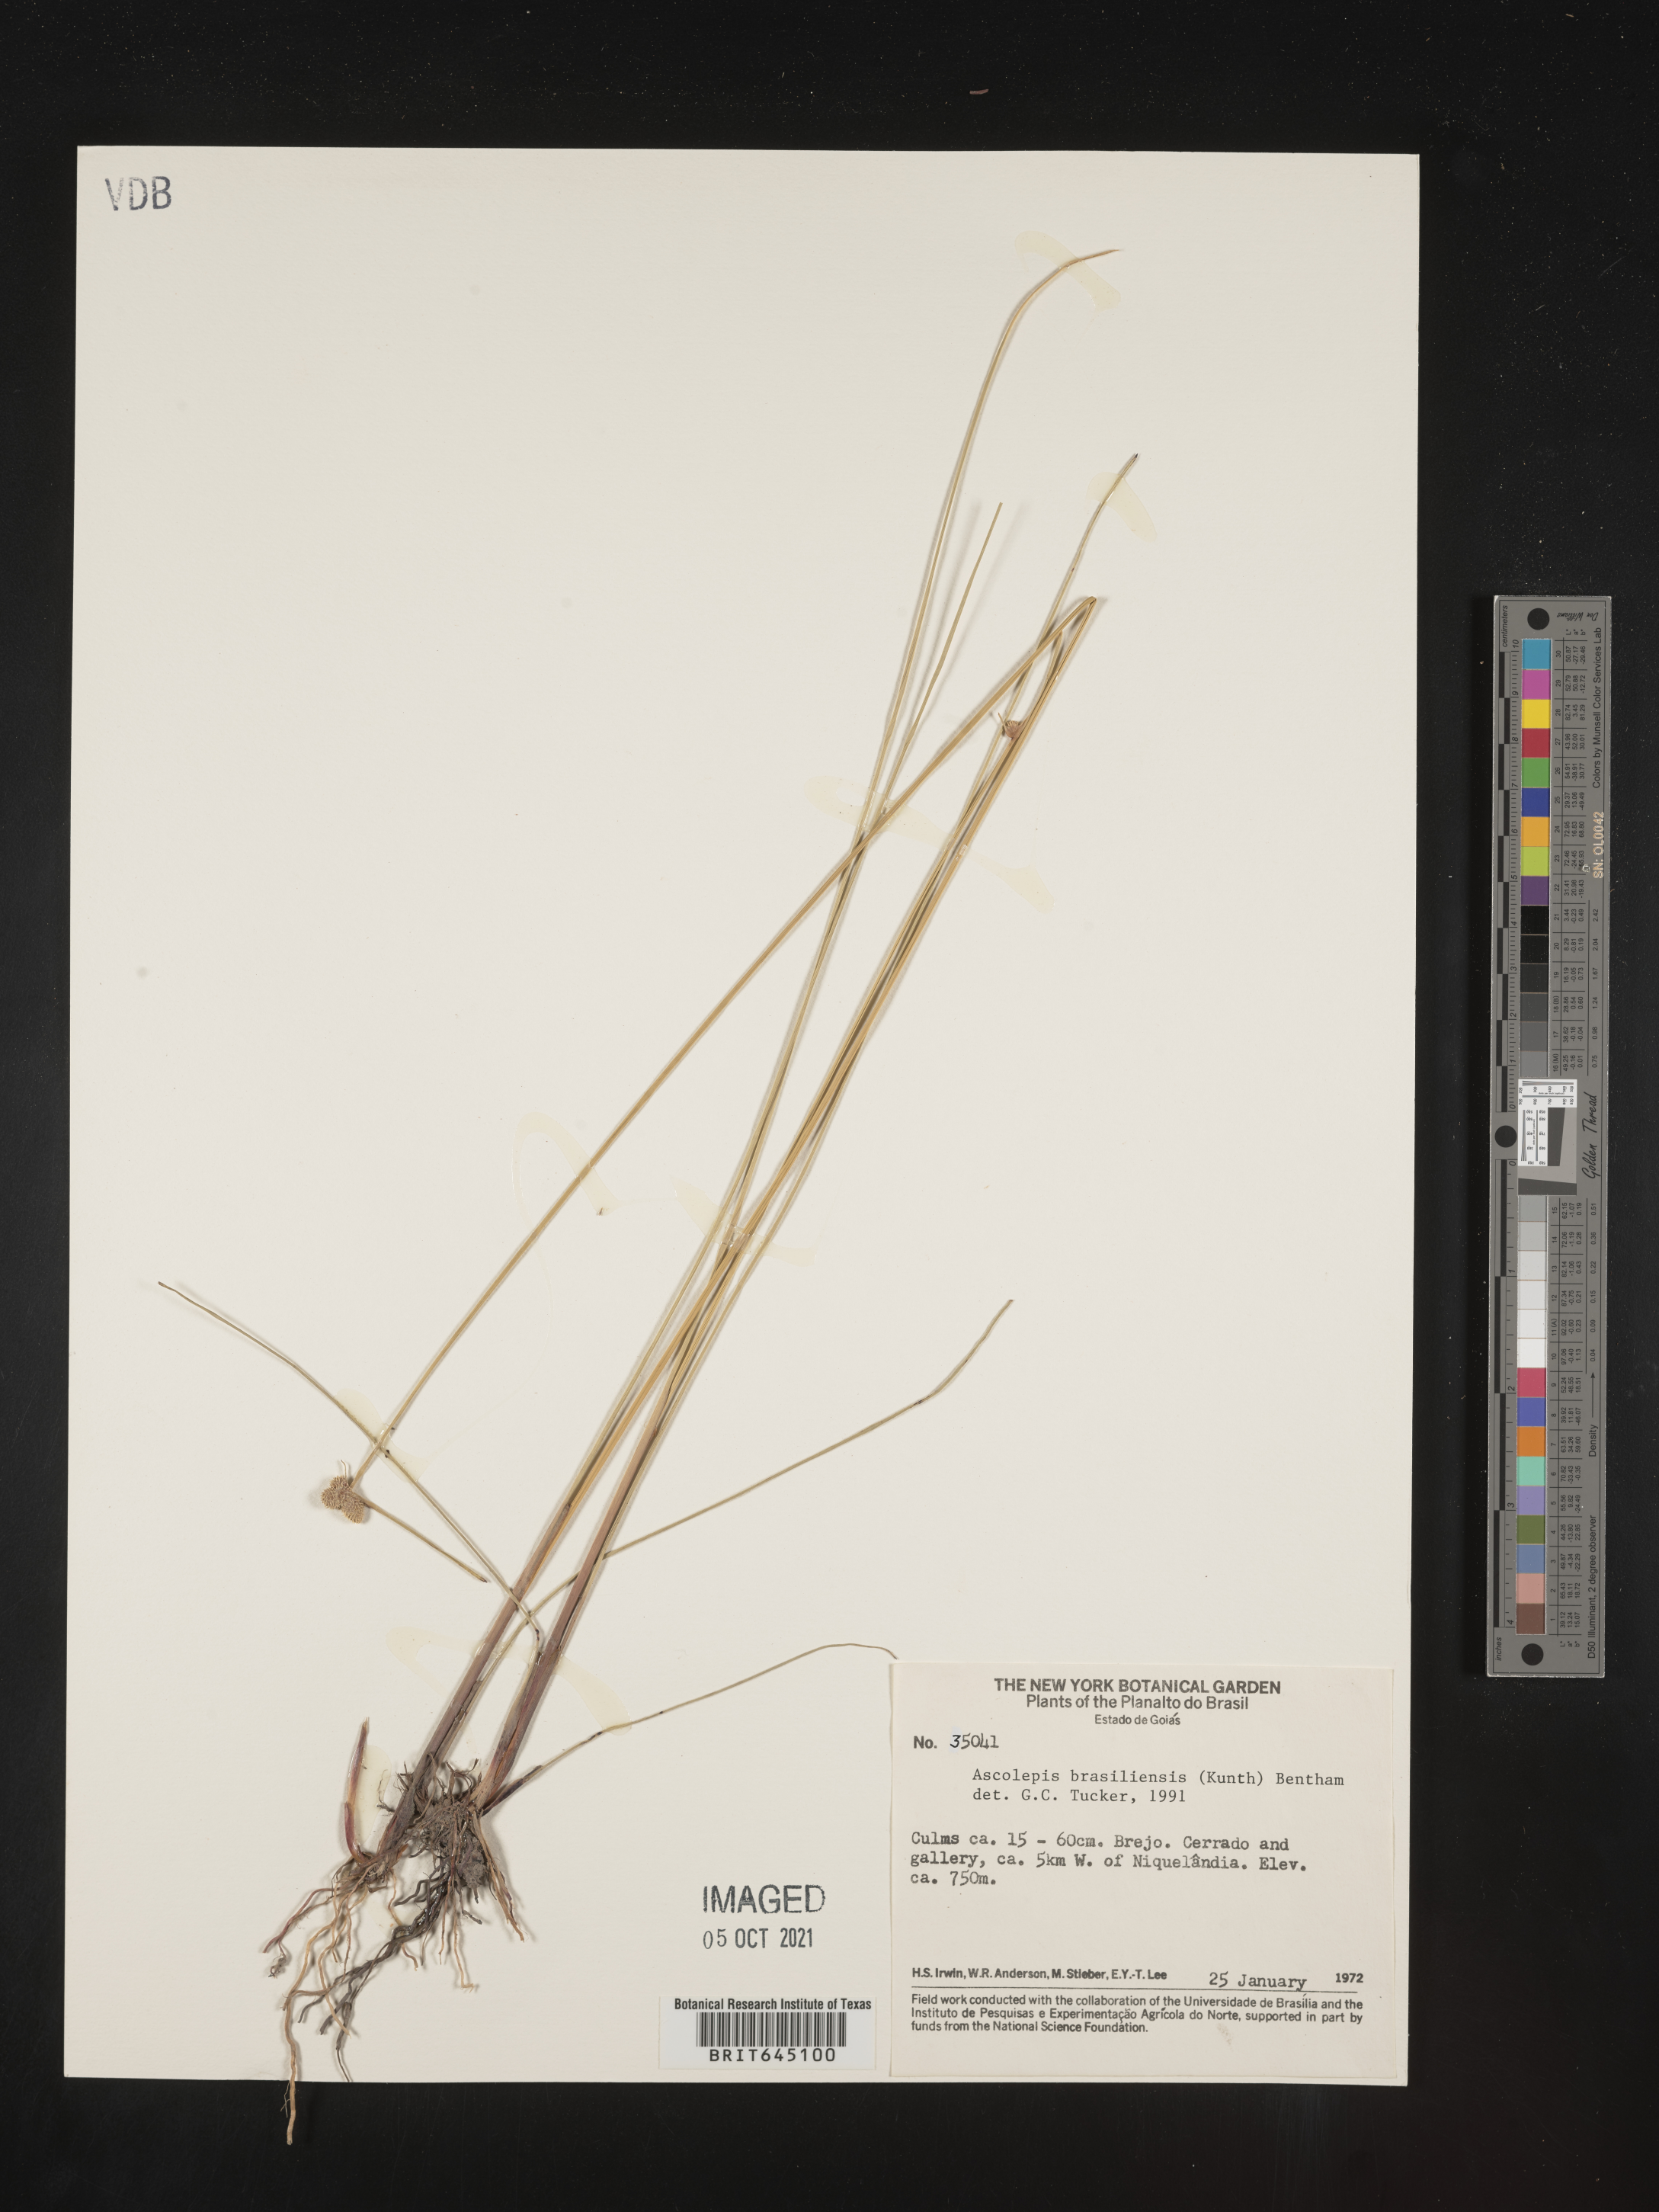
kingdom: Plantae
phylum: Tracheophyta
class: Liliopsida
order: Poales
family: Cyperaceae
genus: Cyperus
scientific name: Cyperus brasiliensis
